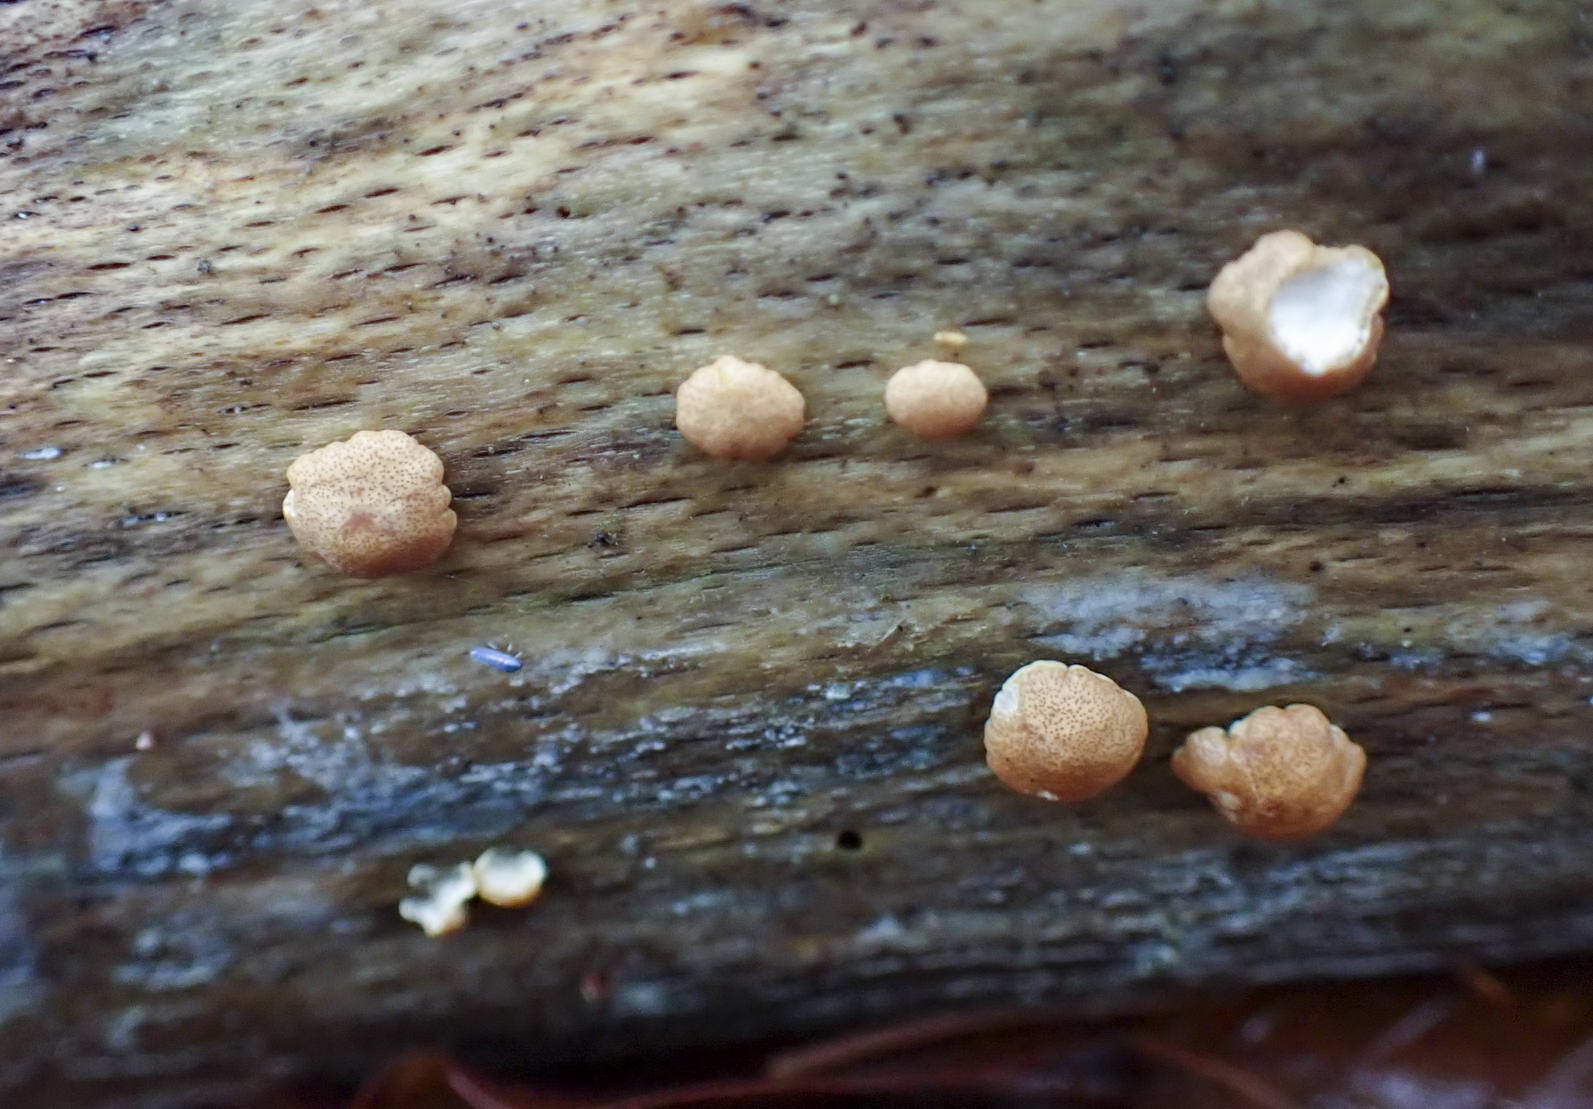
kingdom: Fungi
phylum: Ascomycota
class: Sordariomycetes
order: Hypocreales
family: Hypocreaceae
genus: Trichoderma
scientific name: Trichoderma europaeum
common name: rosabrun kødkerne
